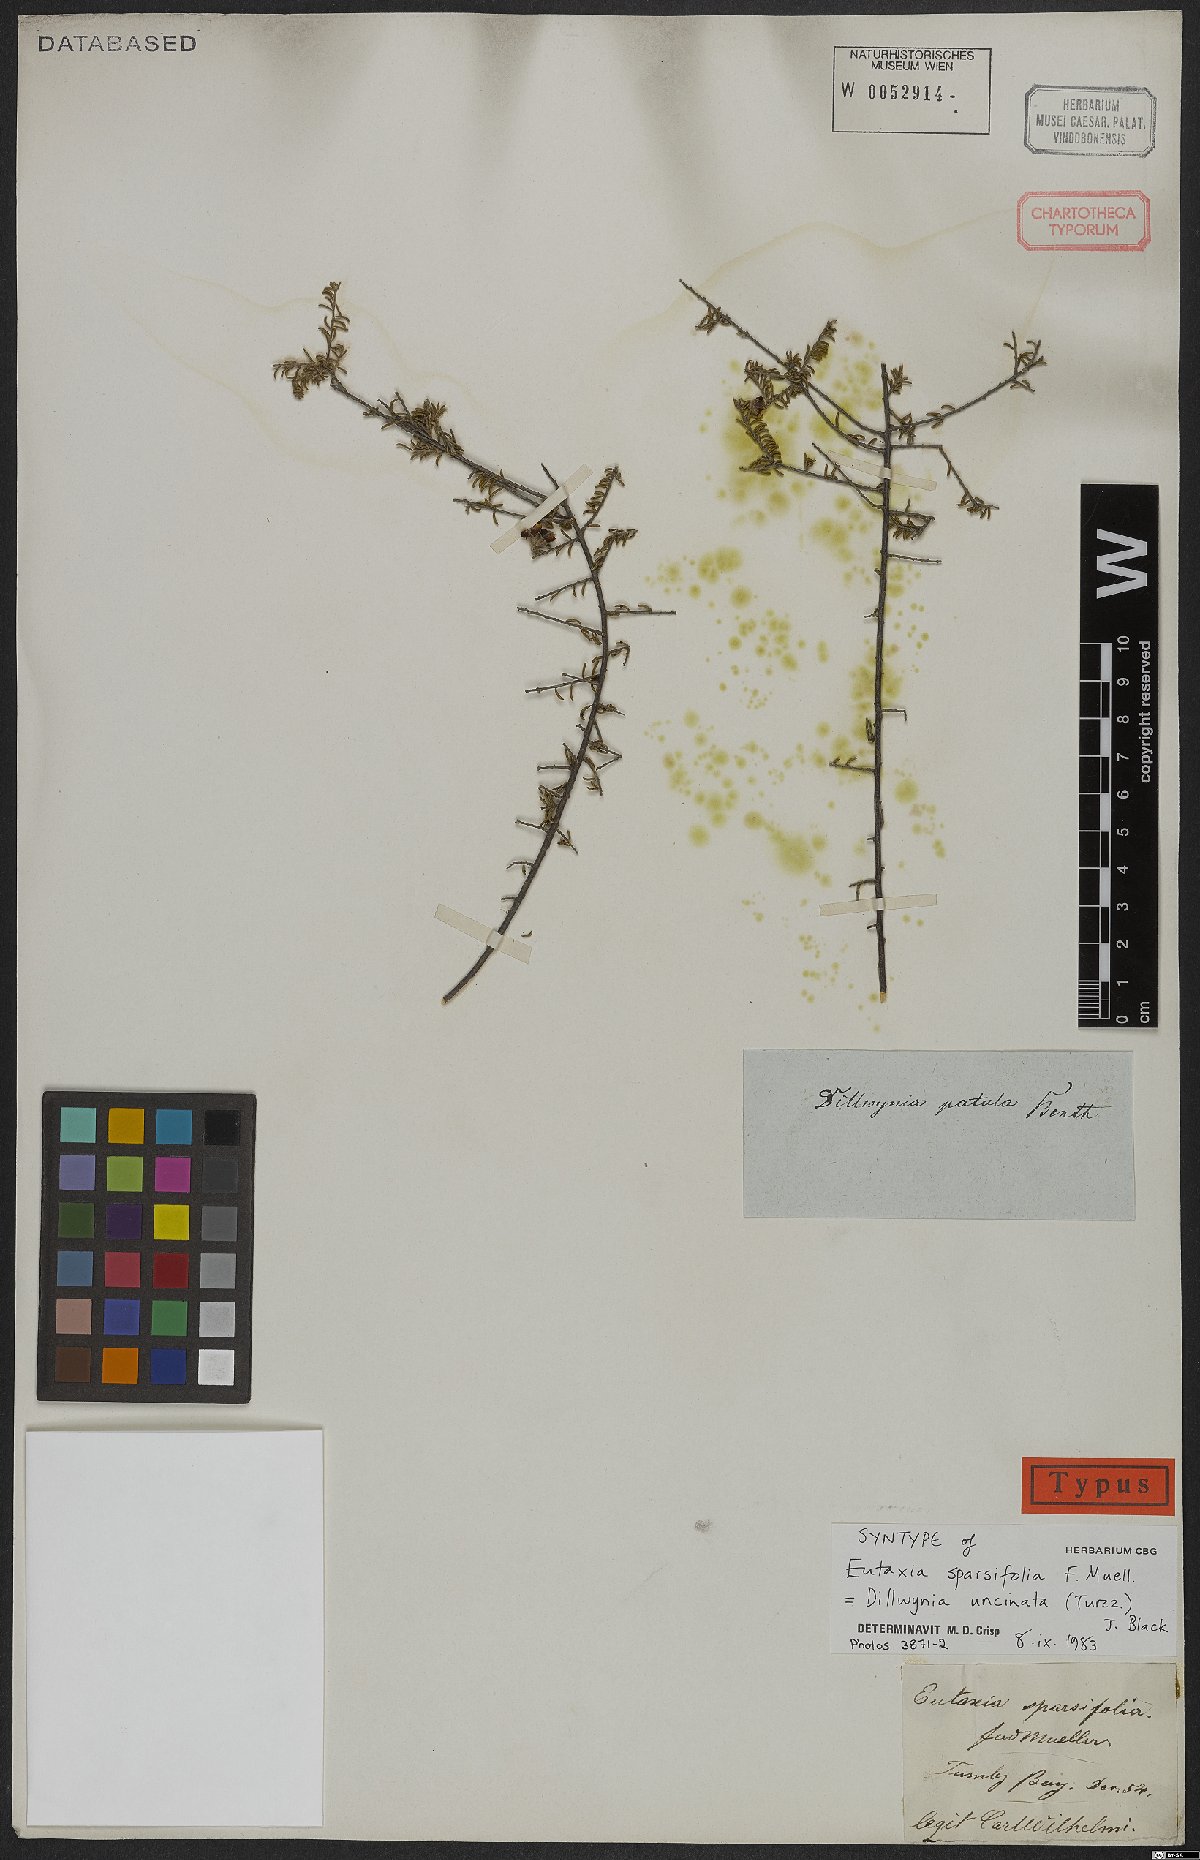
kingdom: Plantae
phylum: Tracheophyta
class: Magnoliopsida
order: Fabales
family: Fabaceae
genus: Dillwynia
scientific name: Dillwynia uncinata
